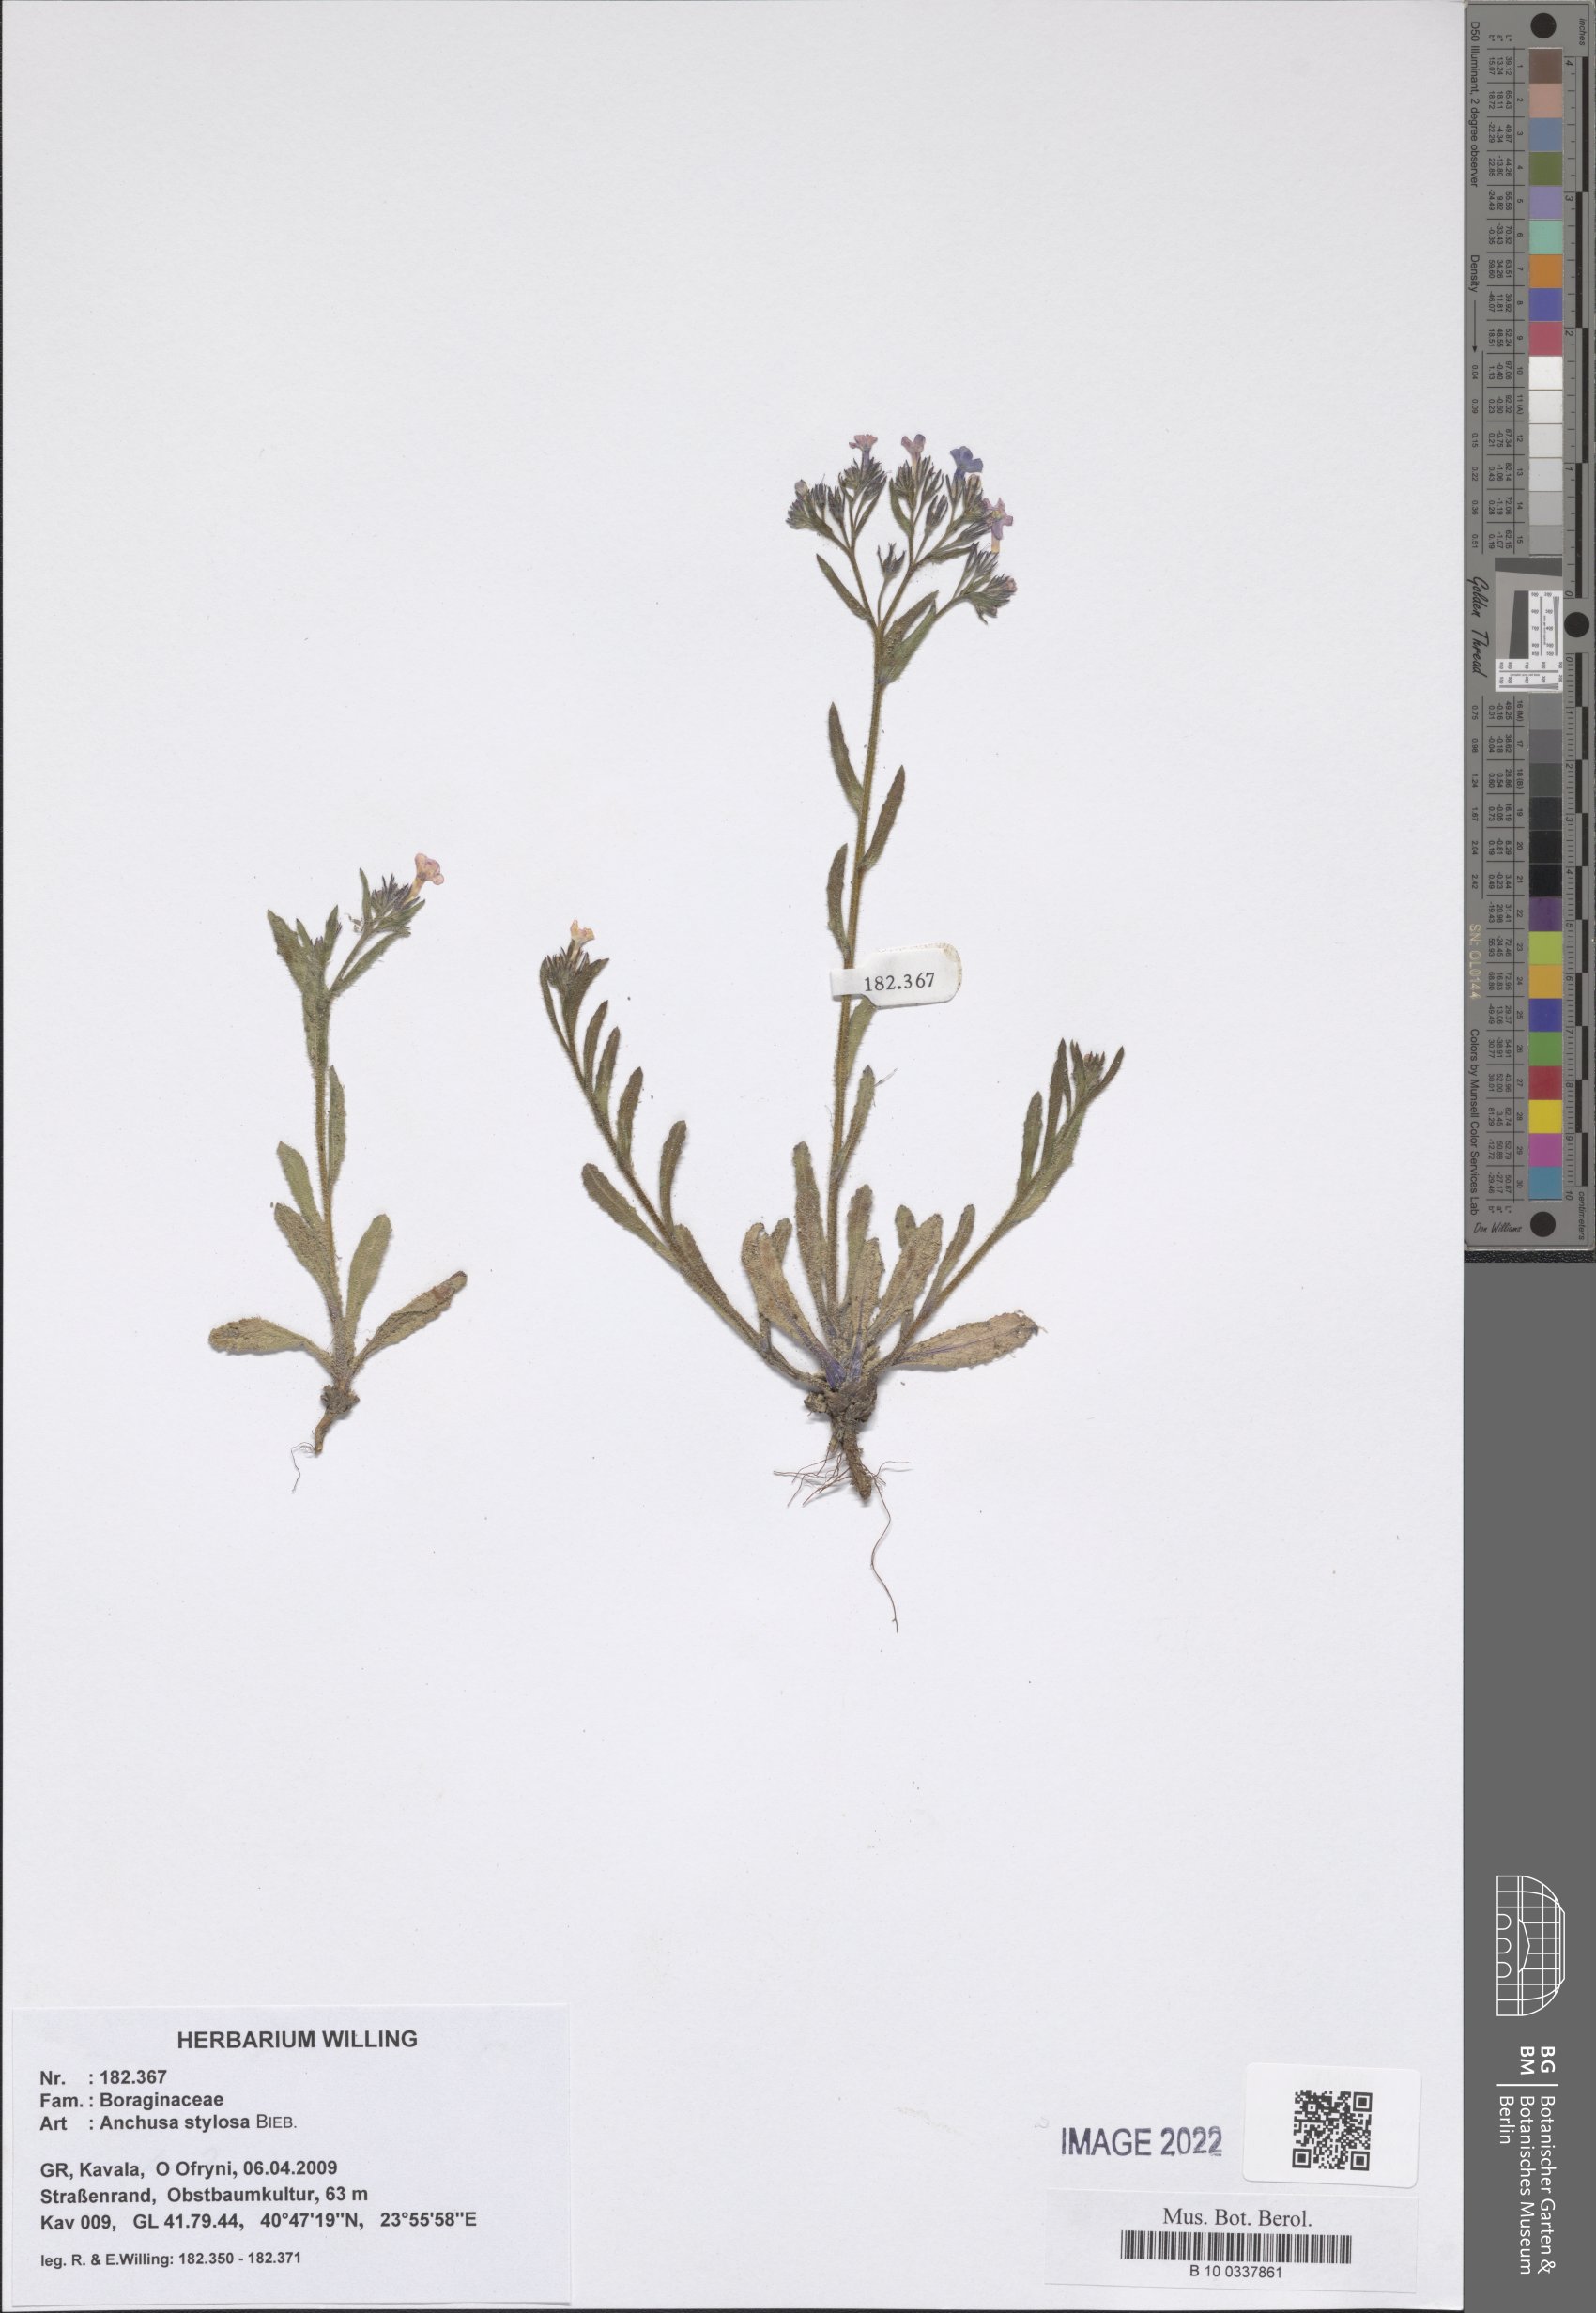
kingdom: Plantae
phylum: Tracheophyta
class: Magnoliopsida
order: Boraginales
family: Boraginaceae
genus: Anchusa
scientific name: Anchusa stylosa
